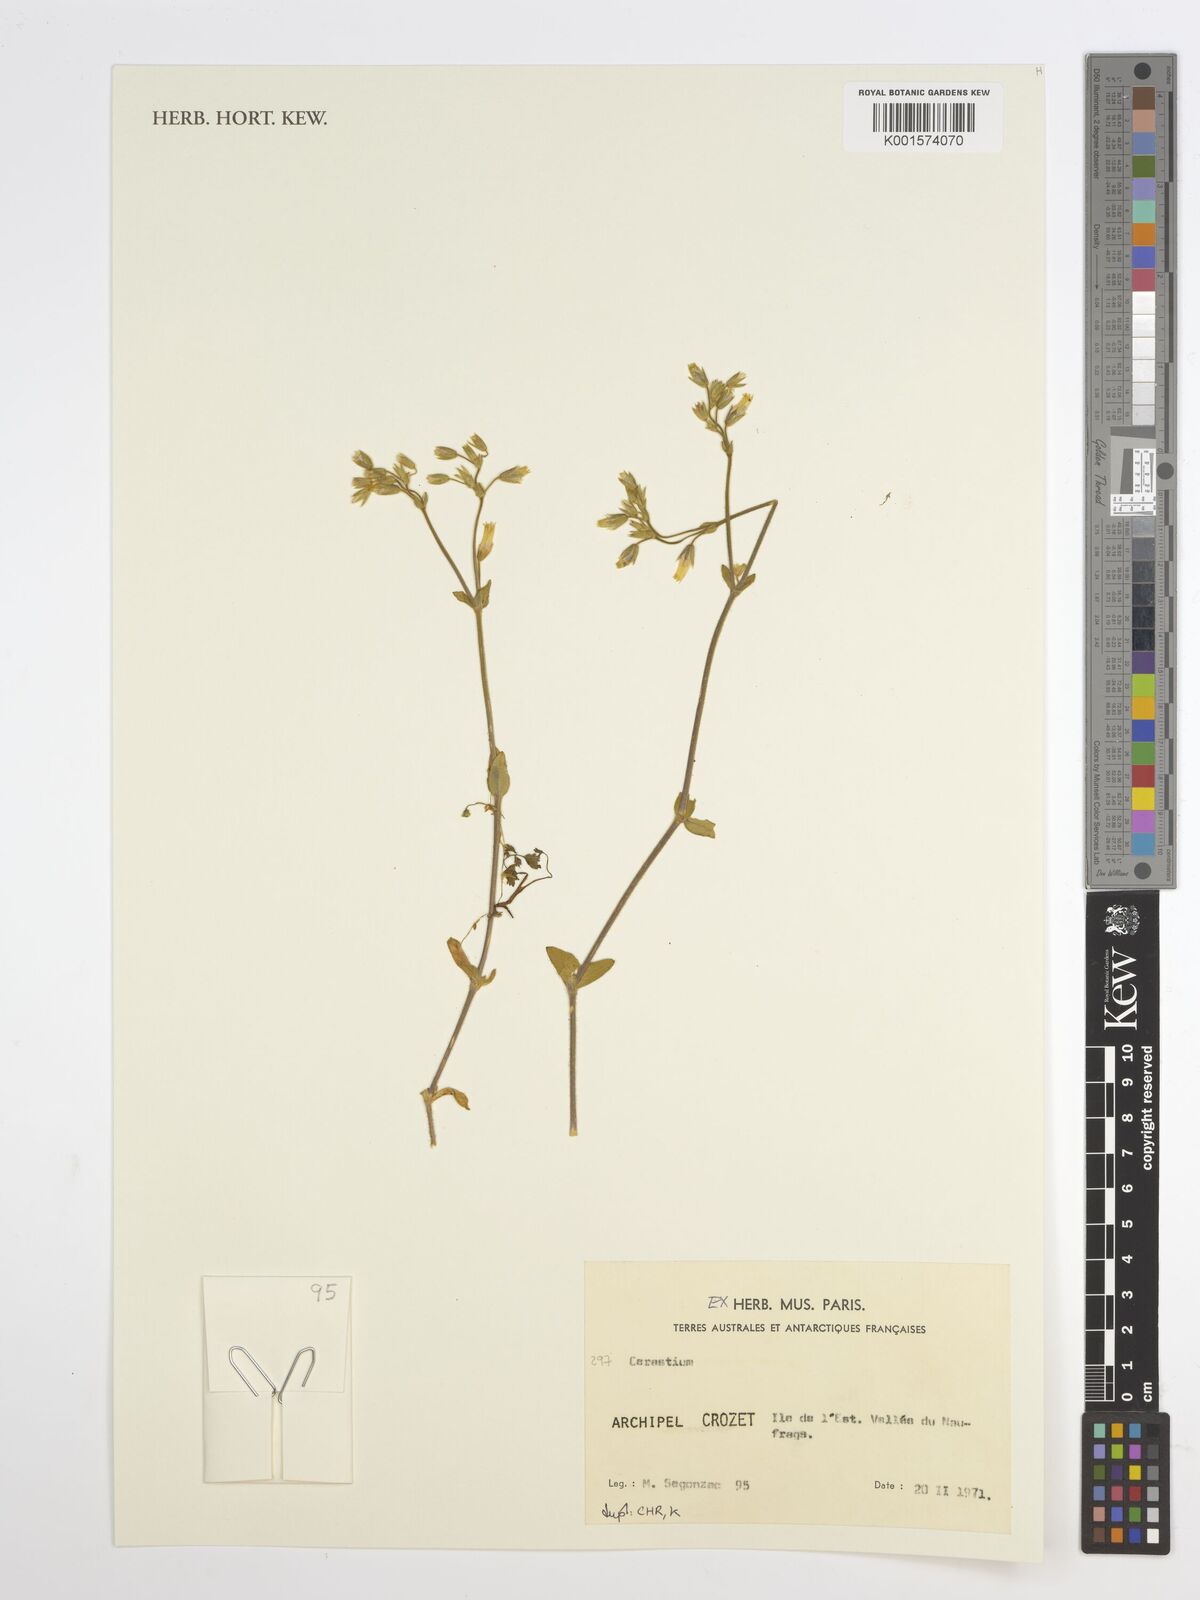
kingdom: Plantae
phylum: Tracheophyta
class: Magnoliopsida
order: Caryophyllales
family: Caryophyllaceae
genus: Cerastium
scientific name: Cerastium
